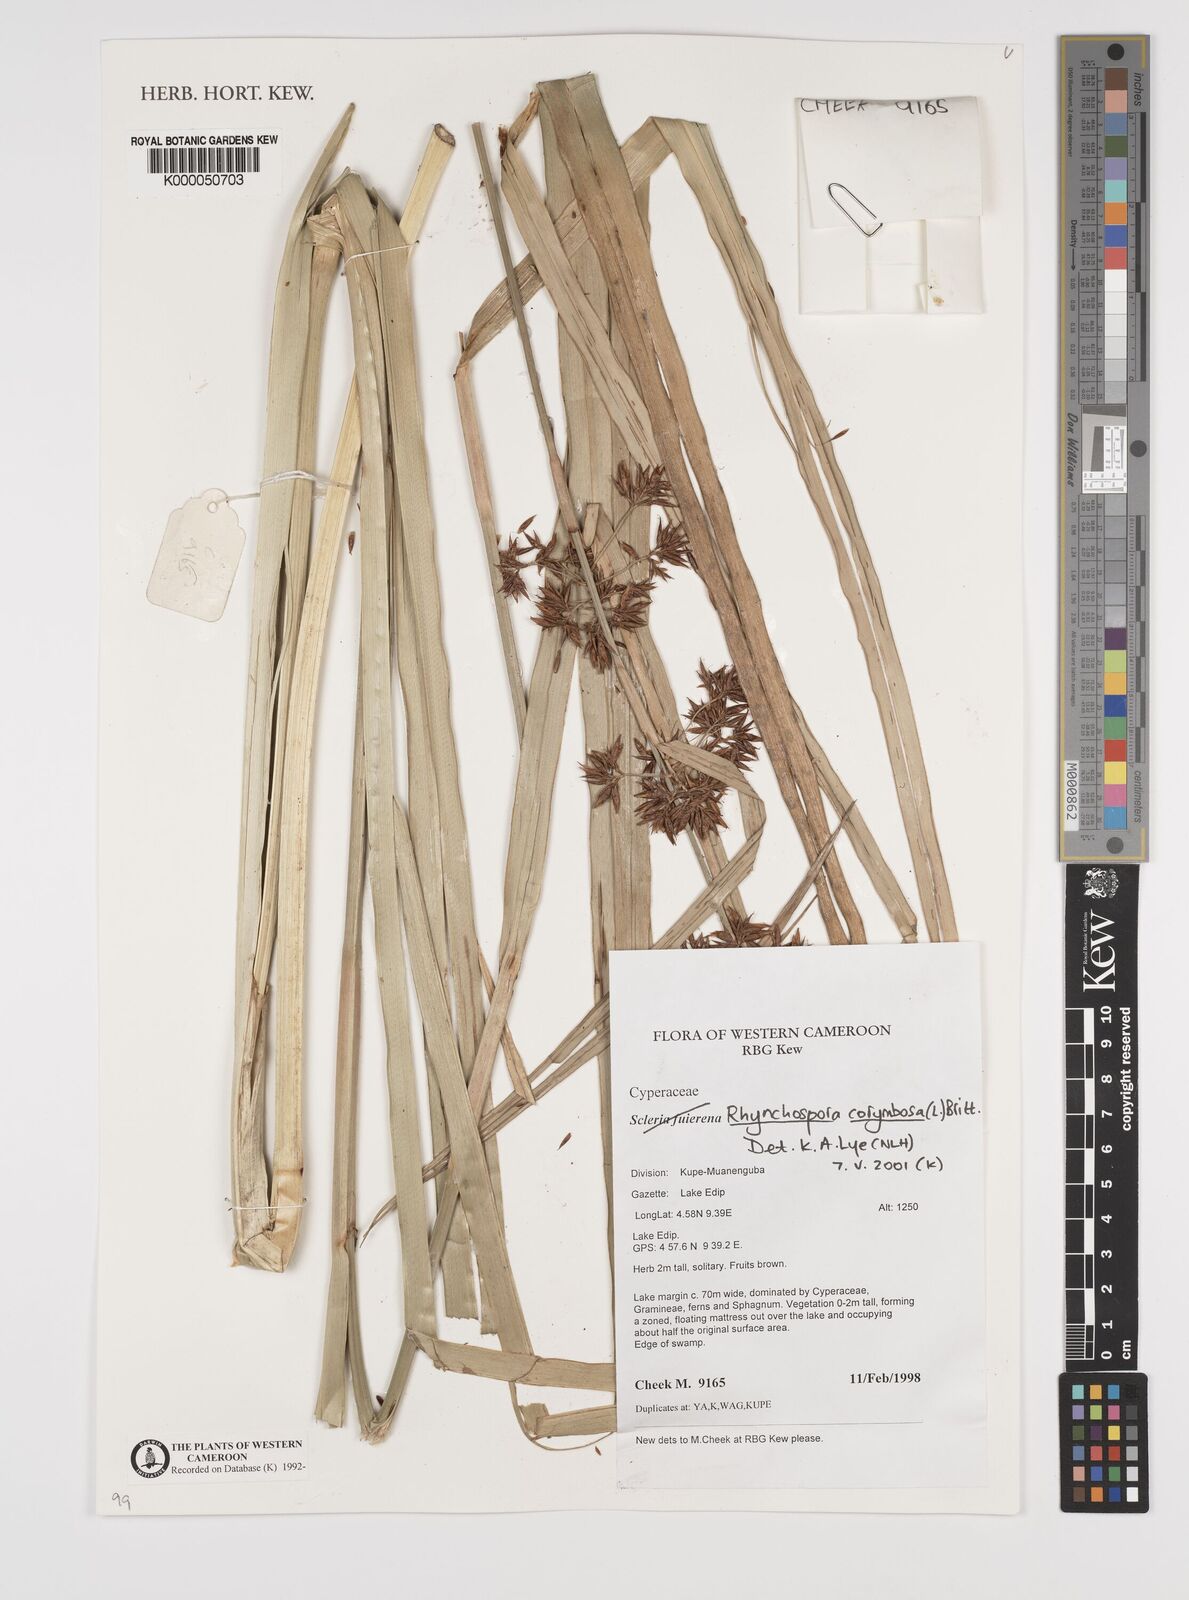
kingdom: Plantae
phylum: Tracheophyta
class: Liliopsida
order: Poales
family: Cyperaceae
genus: Rhynchospora
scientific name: Rhynchospora corymbosa
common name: Golden beak sedge
